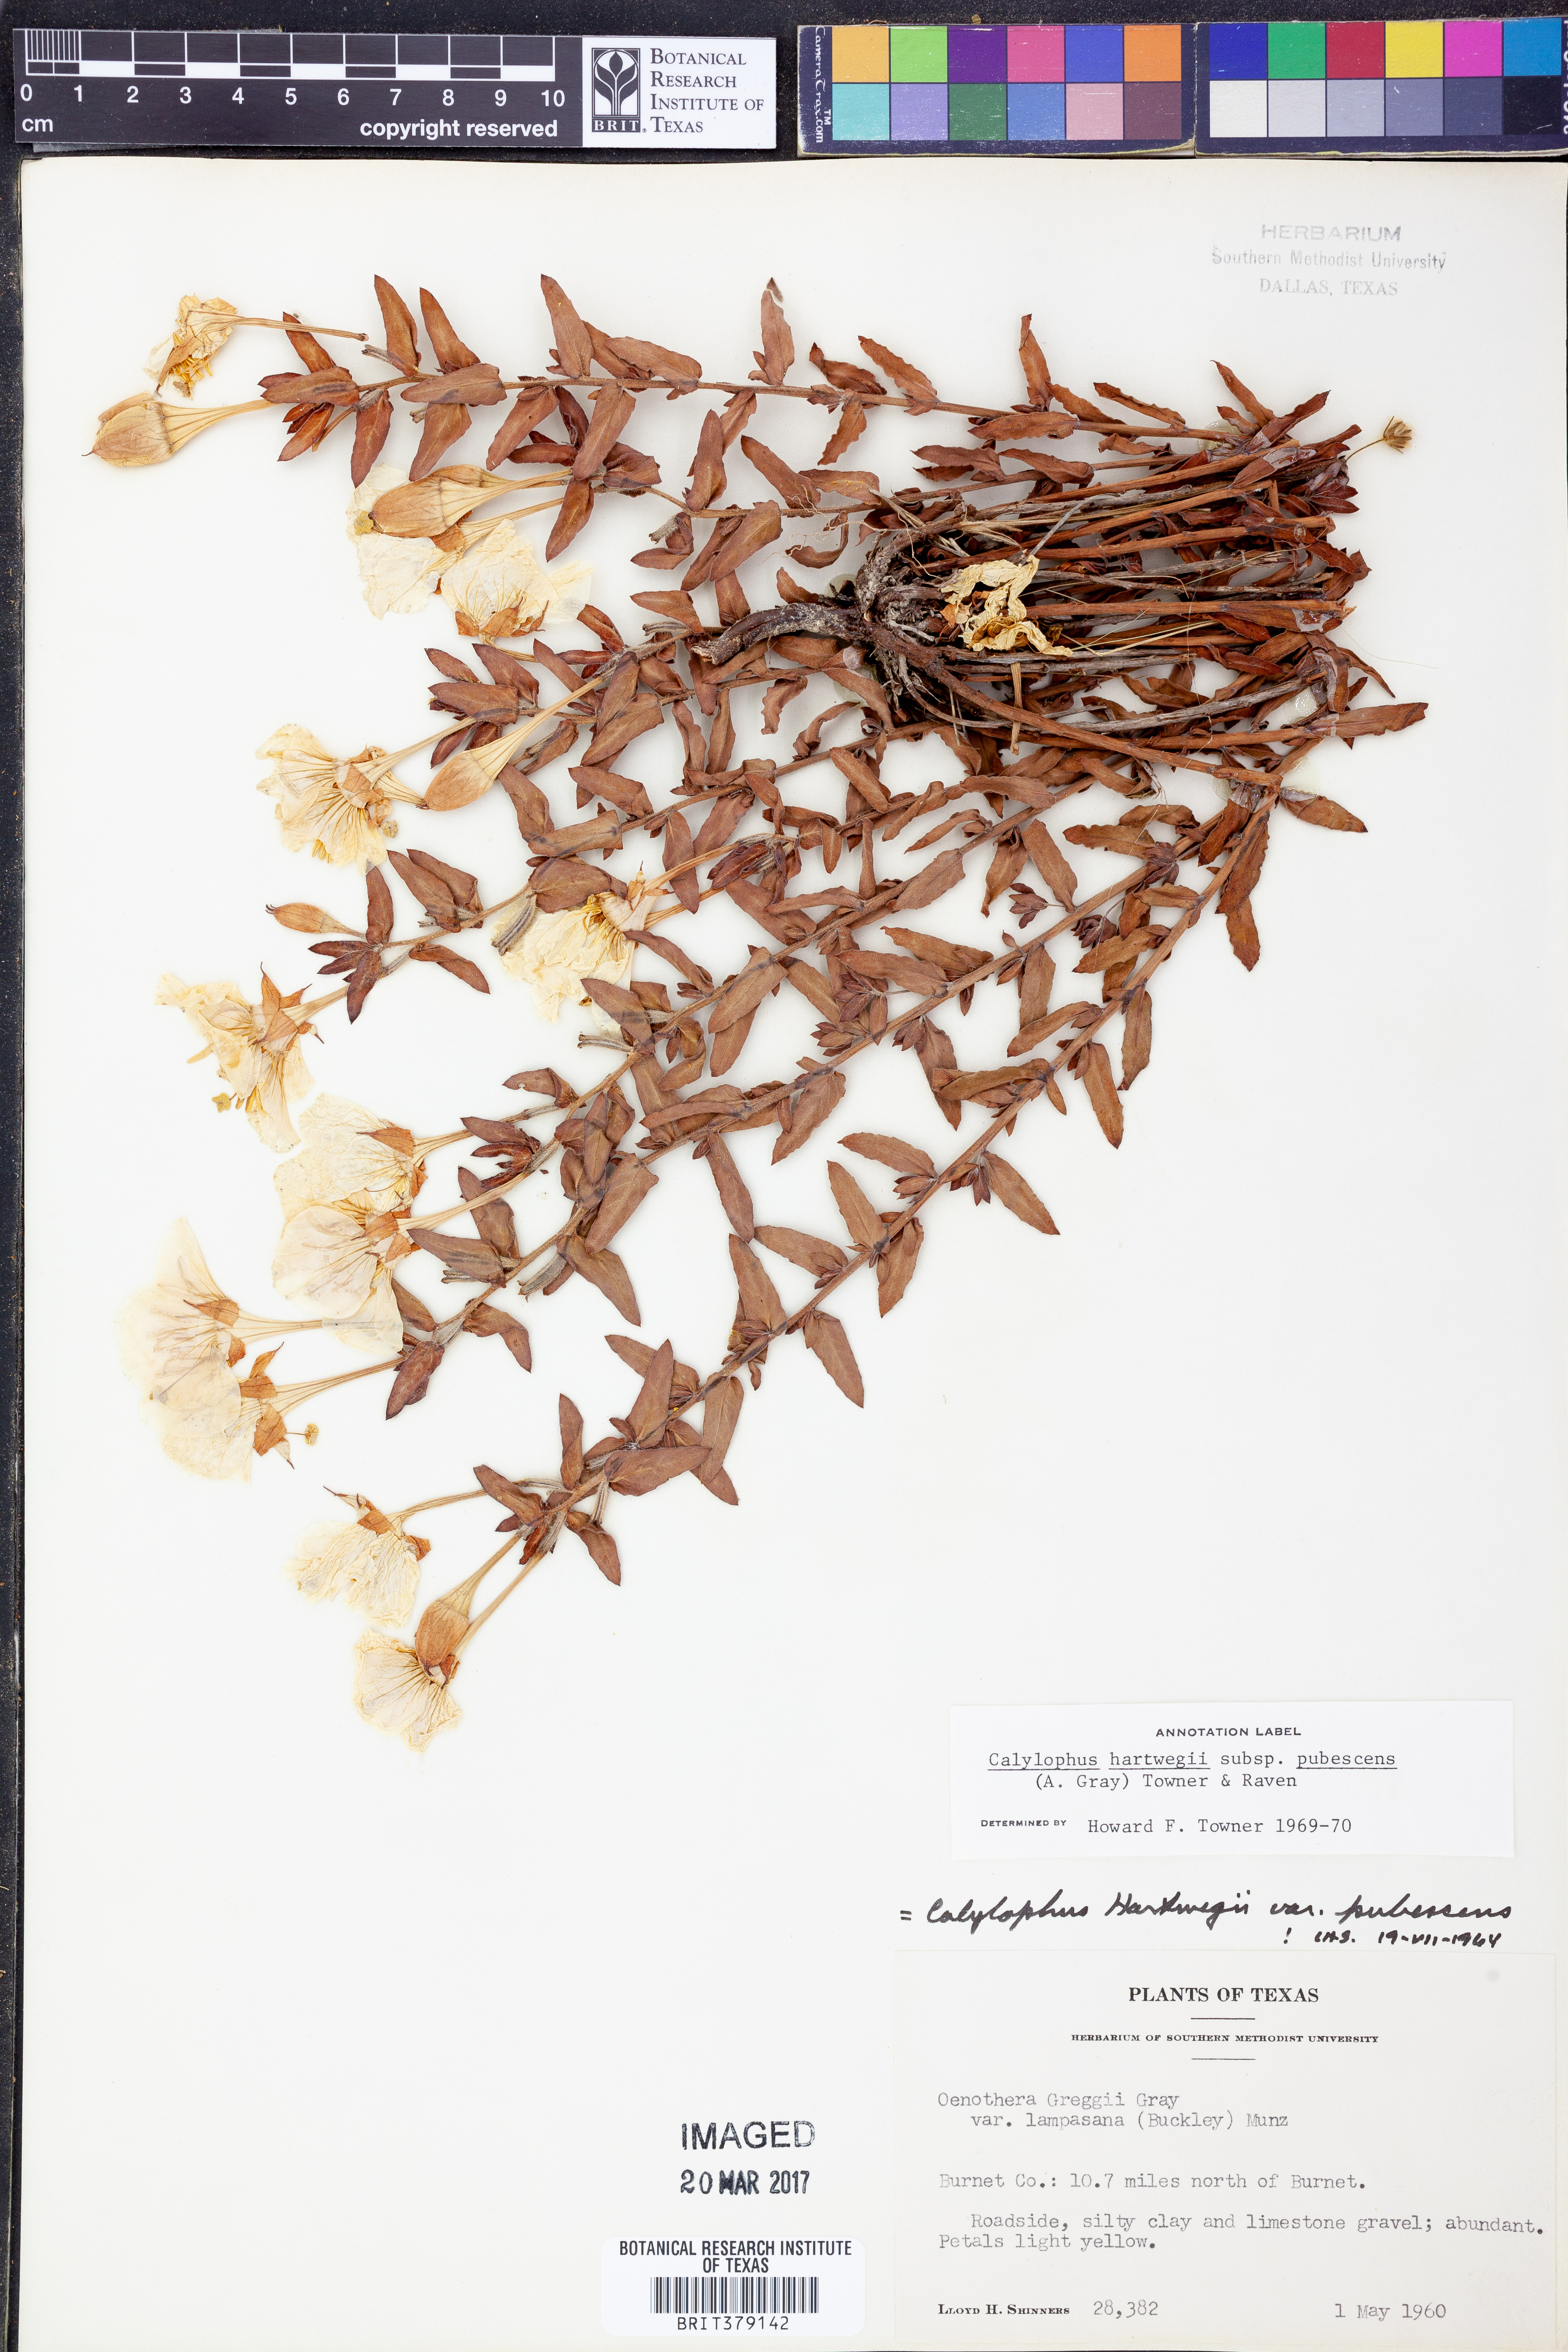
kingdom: Plantae
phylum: Tracheophyta
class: Magnoliopsida
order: Myrtales
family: Onagraceae
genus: Oenothera
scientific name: Oenothera hartwegii
